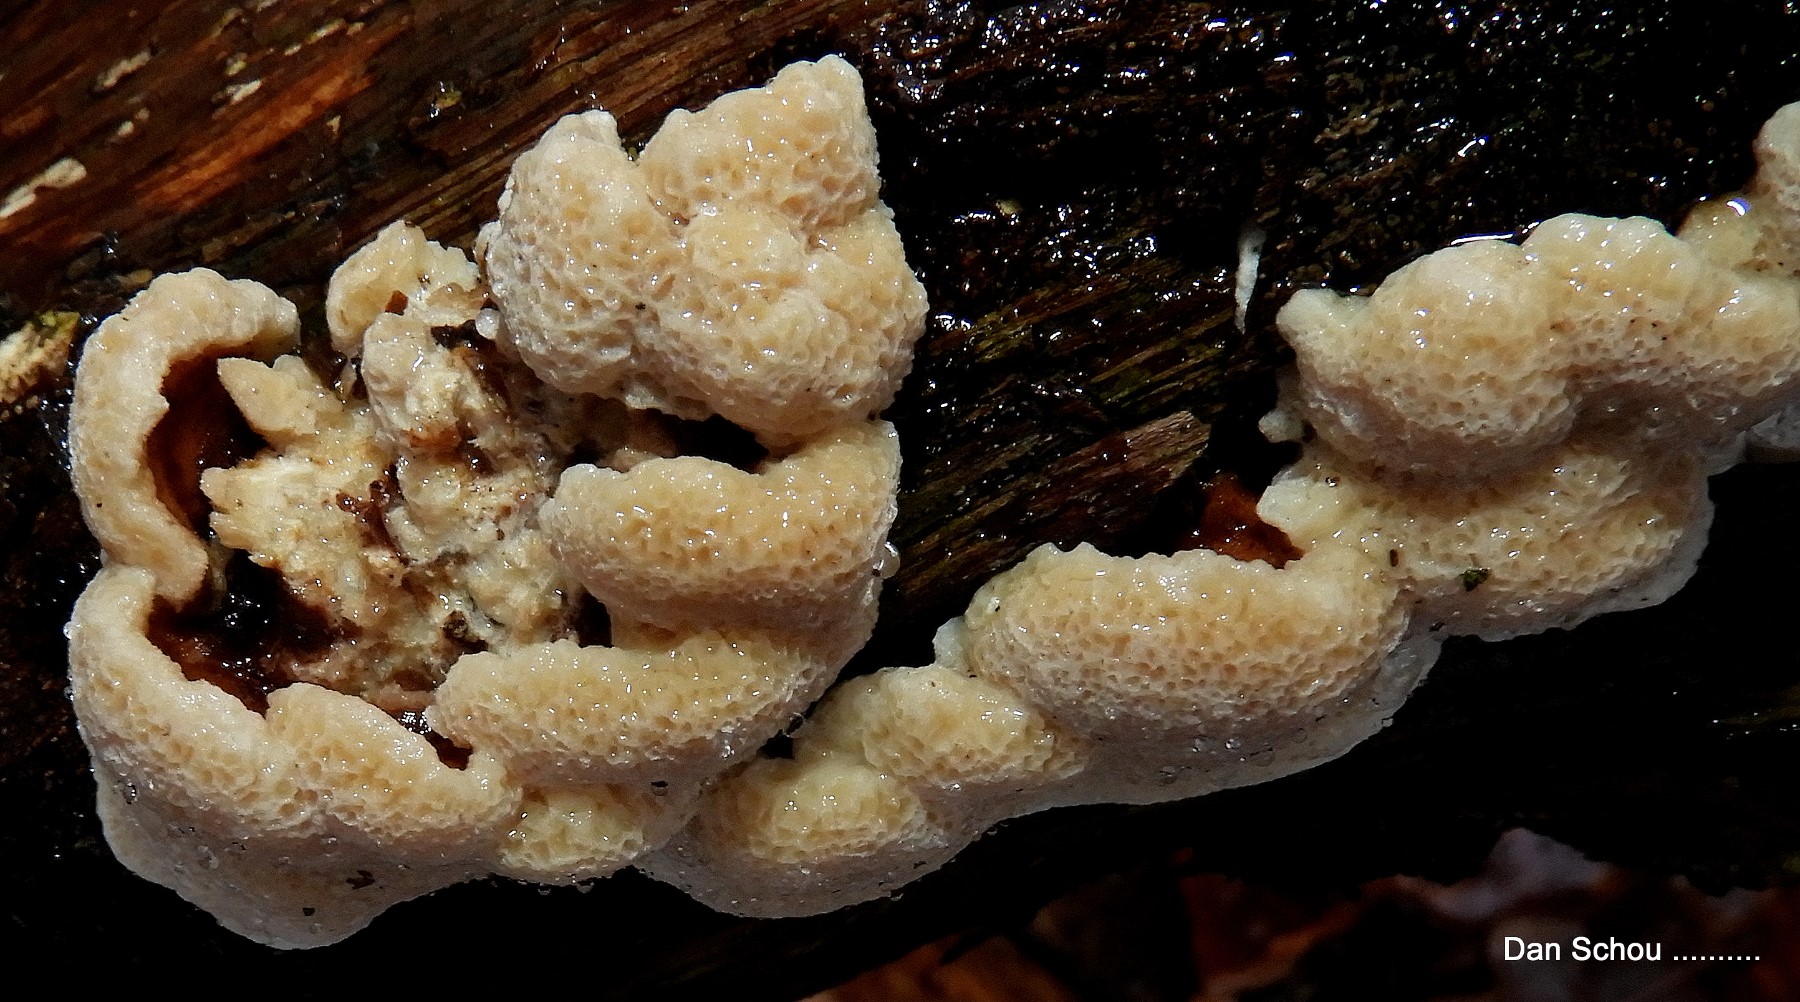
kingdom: Fungi
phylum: Basidiomycota
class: Agaricomycetes
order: Polyporales
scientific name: Polyporales
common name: poresvampordenen
